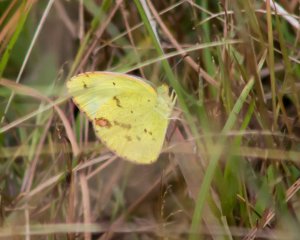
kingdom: Animalia
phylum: Arthropoda
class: Insecta
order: Lepidoptera
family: Pieridae
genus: Pyrisitia
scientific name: Pyrisitia lisa
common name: Little Yellow
